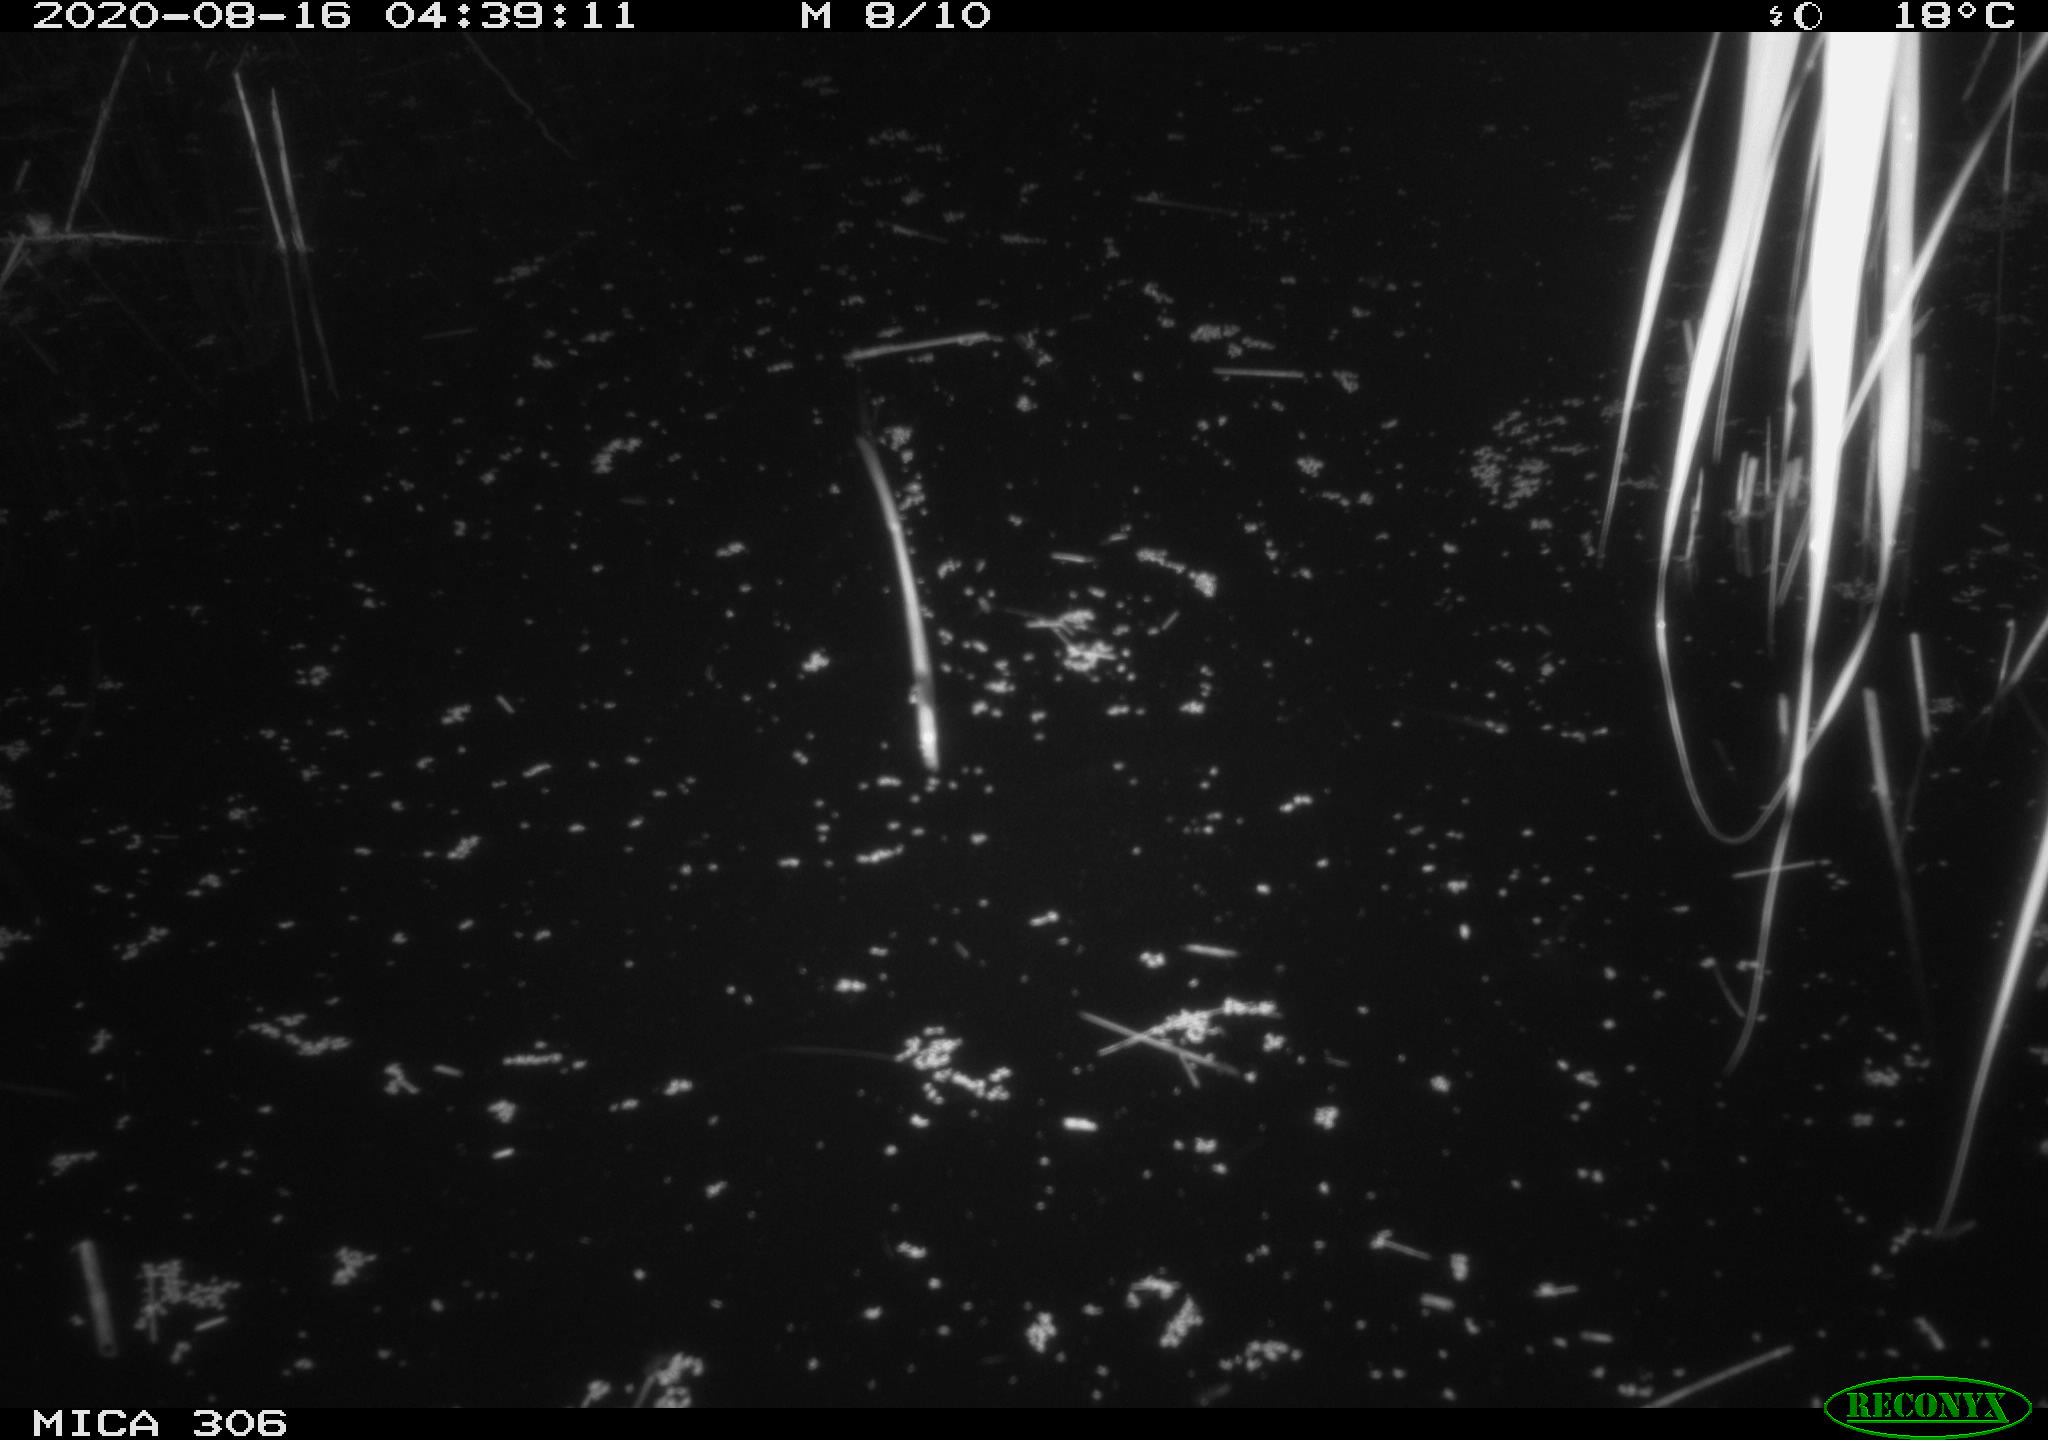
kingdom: Animalia
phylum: Chordata
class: Mammalia
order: Rodentia
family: Muridae
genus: Rattus
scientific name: Rattus norvegicus
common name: Brown rat
